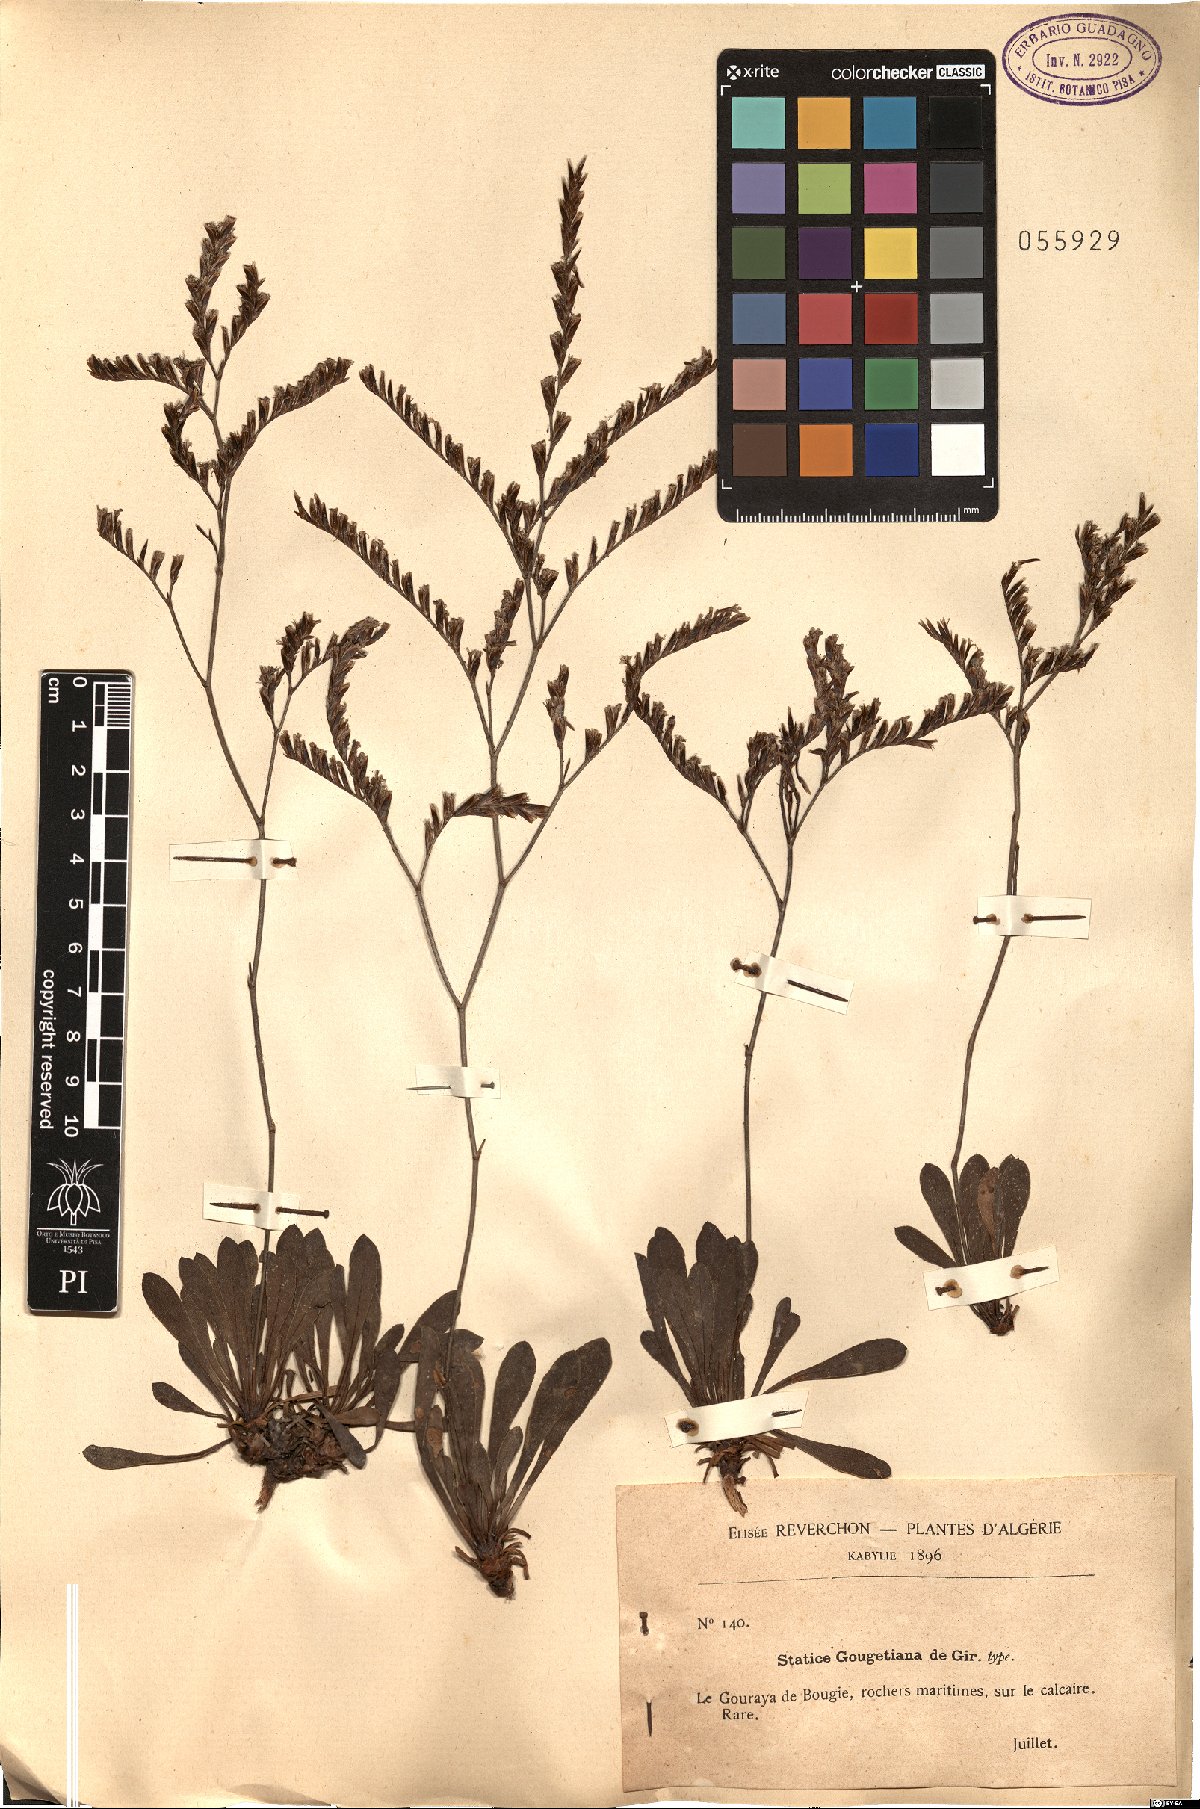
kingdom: Plantae
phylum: Tracheophyta
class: Magnoliopsida
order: Caryophyllales
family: Plumbaginaceae
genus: Limonium
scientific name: Limonium gougetianum
